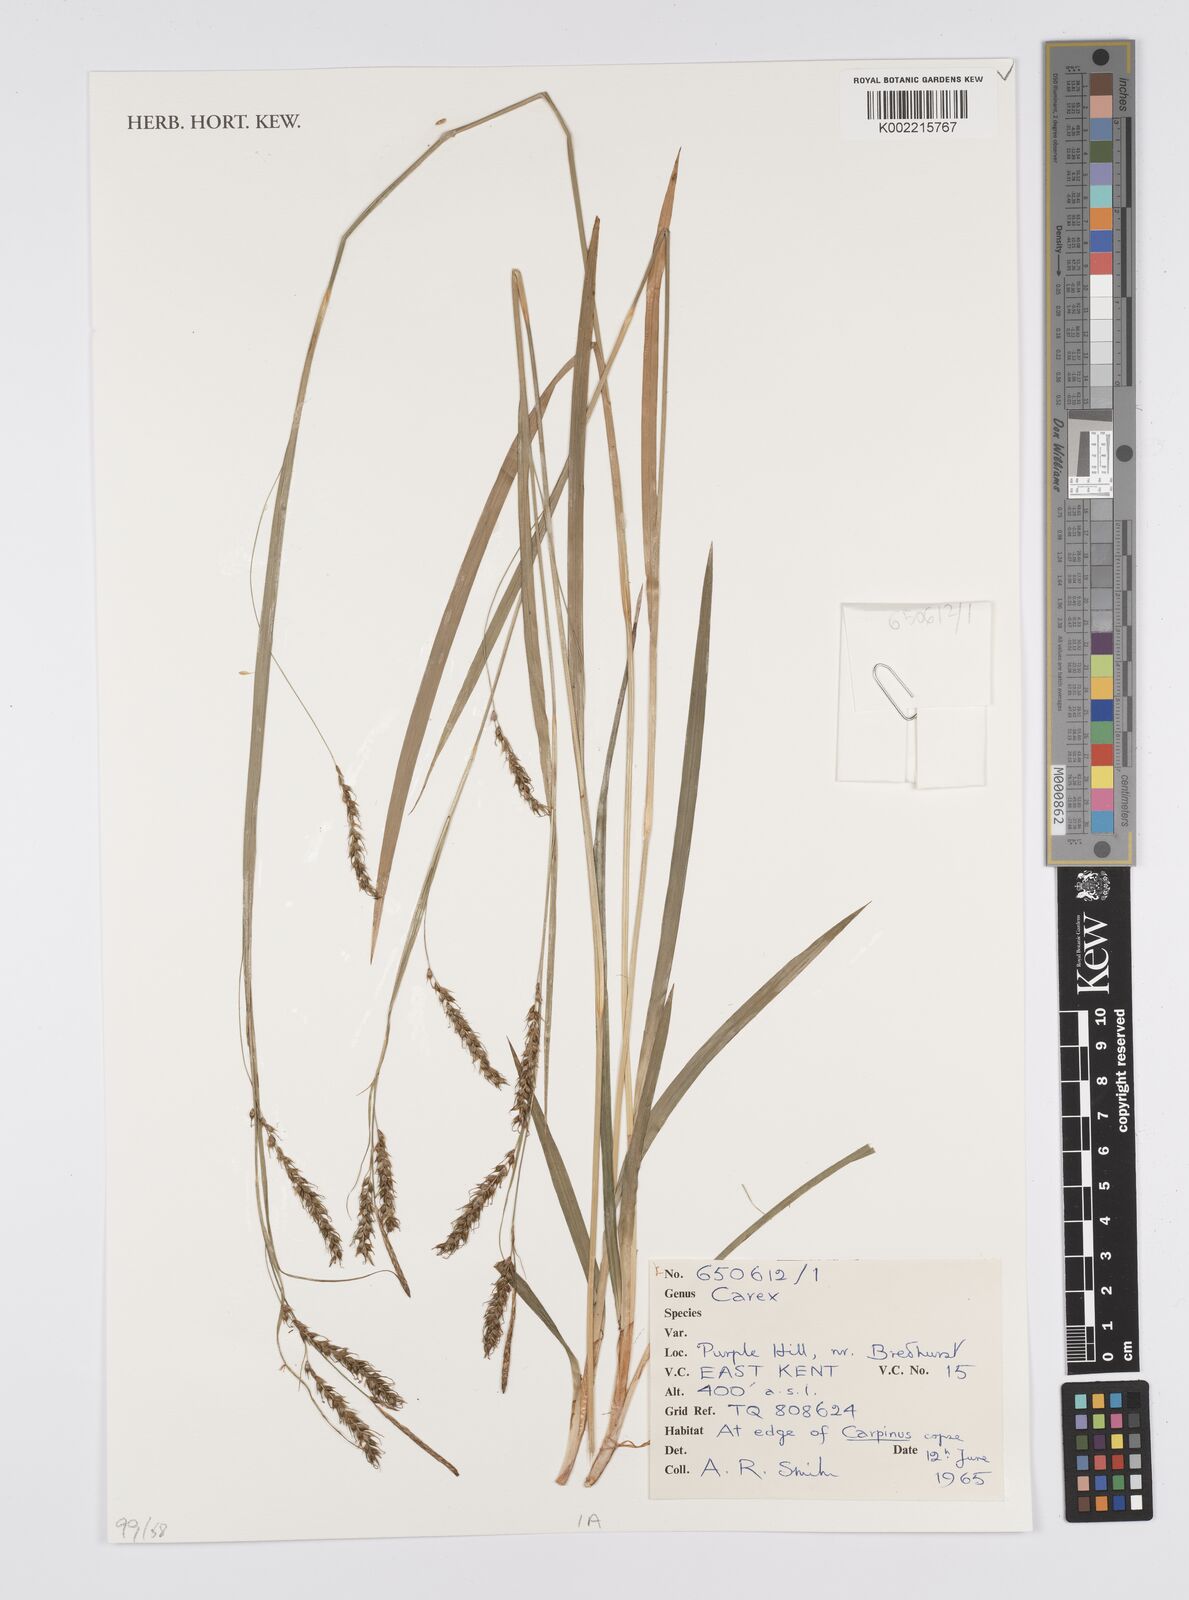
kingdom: Plantae
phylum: Tracheophyta
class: Liliopsida
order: Poales
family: Cyperaceae
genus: Carex
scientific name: Carex
